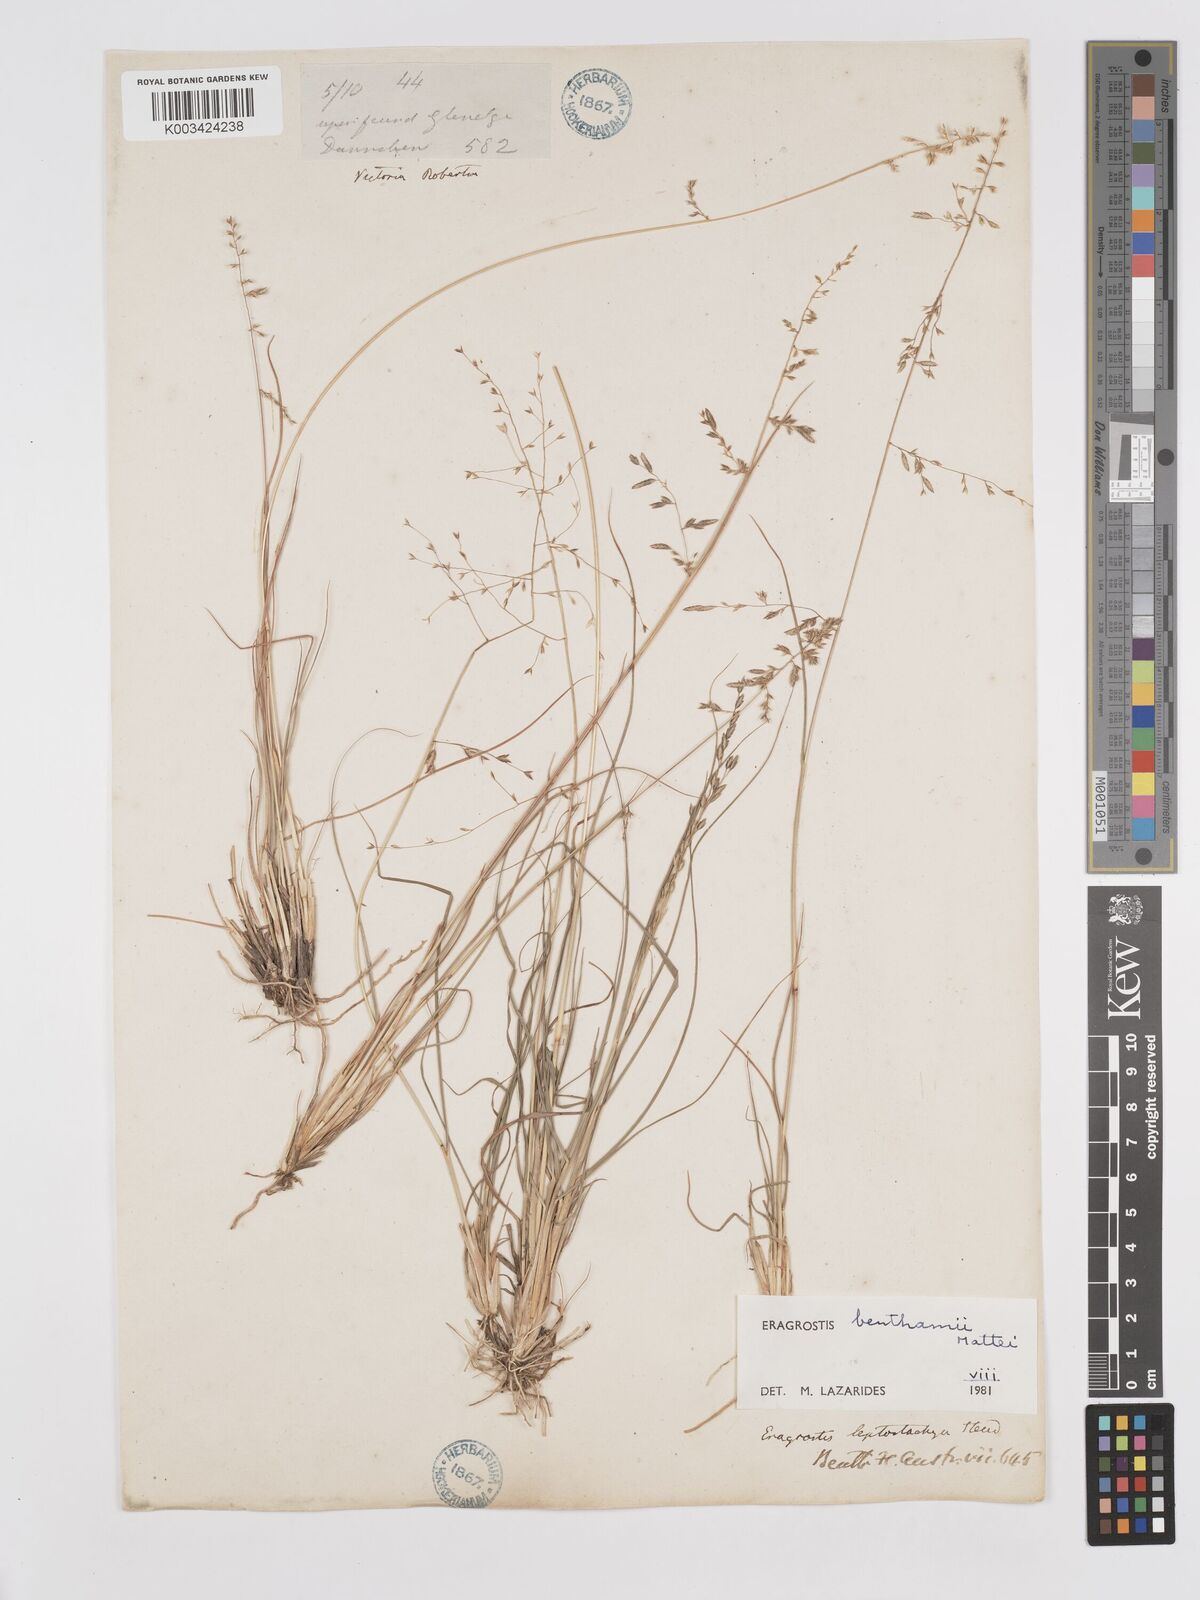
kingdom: Plantae
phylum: Tracheophyta
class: Liliopsida
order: Poales
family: Poaceae
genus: Eragrostis
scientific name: Eragrostis brownii
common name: Lovegrass
